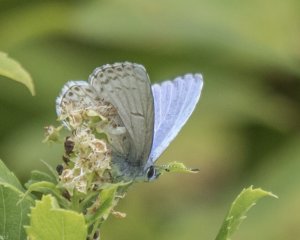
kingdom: Animalia
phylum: Arthropoda
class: Insecta
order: Lepidoptera
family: Lycaenidae
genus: Cyaniris
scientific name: Cyaniris neglecta
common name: Summer Azure
